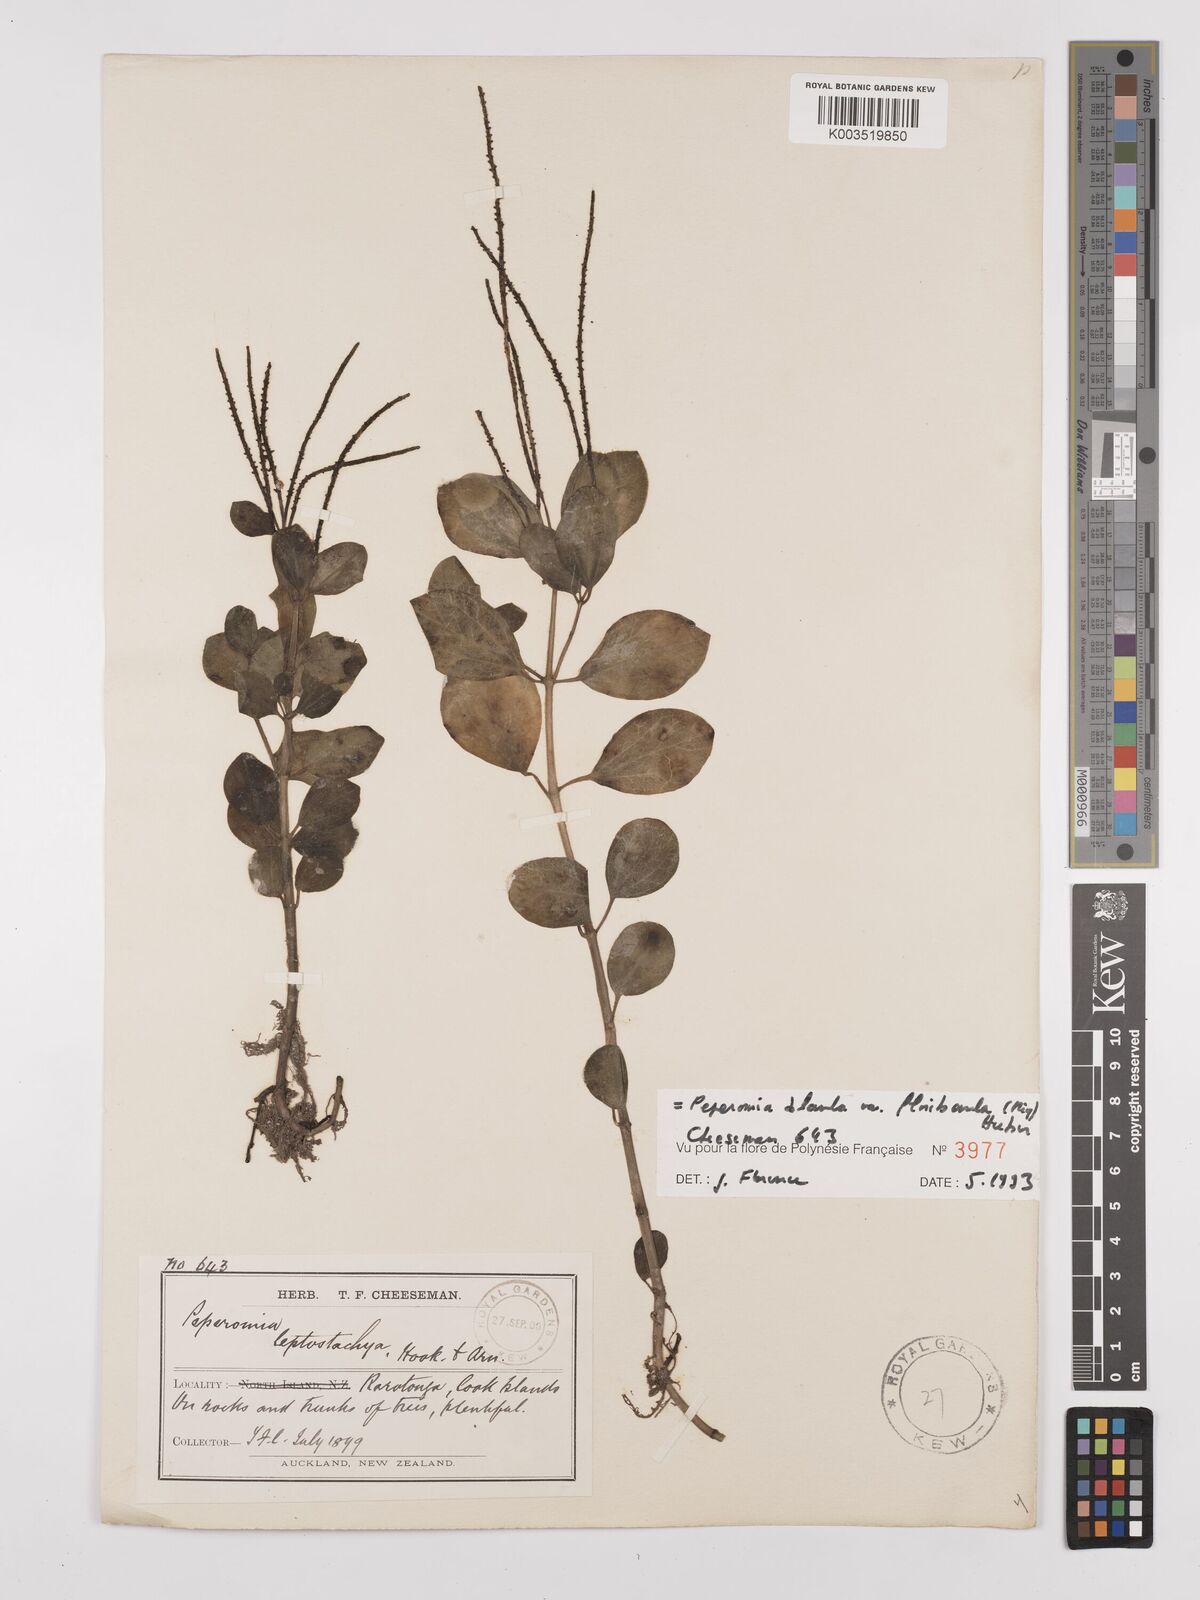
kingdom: Plantae
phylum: Tracheophyta
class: Magnoliopsida
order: Piperales
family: Piperaceae
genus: Peperomia
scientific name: Peperomia leptostachya
